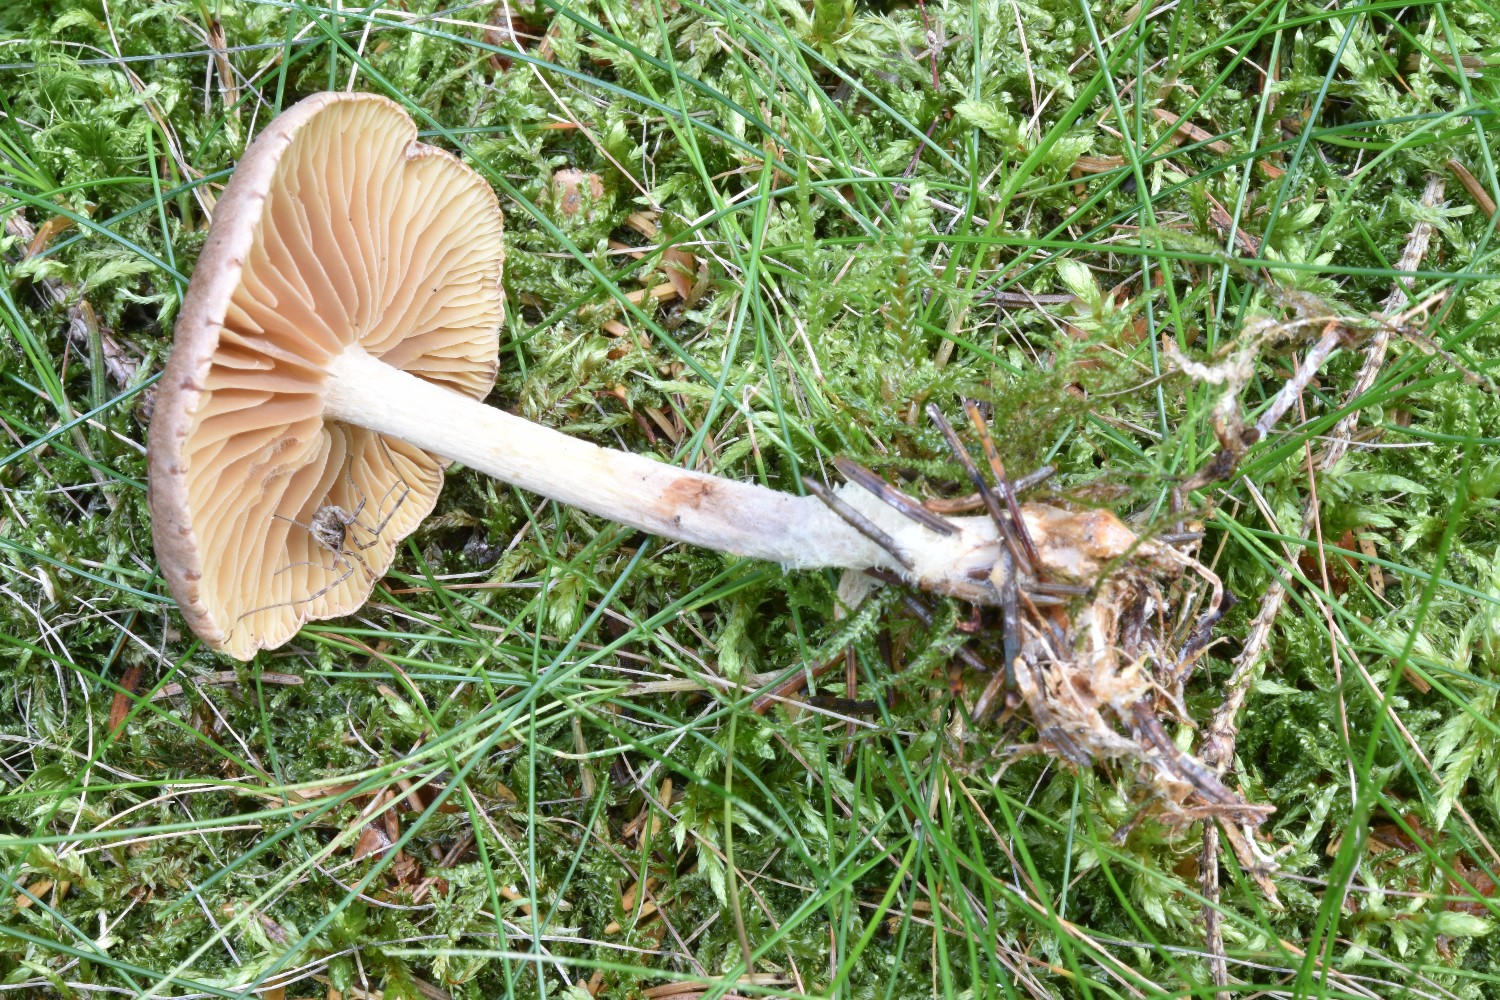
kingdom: Fungi
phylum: Basidiomycota
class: Agaricomycetes
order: Agaricales
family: Omphalotaceae
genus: Collybiopsis
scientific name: Collybiopsis peronata
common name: bestøvlet fladhat
